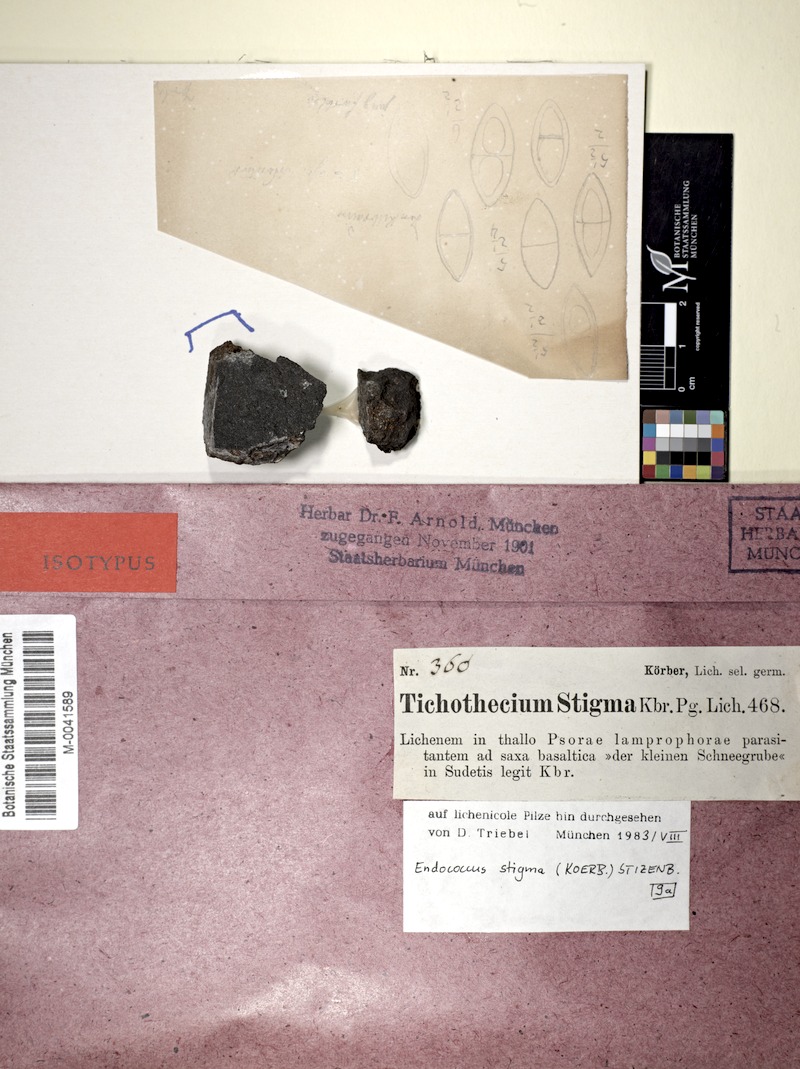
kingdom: Fungi
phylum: Ascomycota
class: Dothideomycetes
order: Dothideales
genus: Endococcus
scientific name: Endococcus macrosporus
